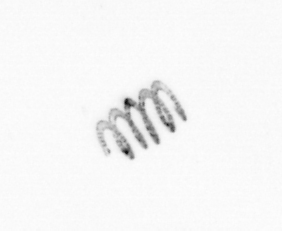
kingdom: Chromista
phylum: Ochrophyta
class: Bacillariophyceae
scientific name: Bacillariophyceae
